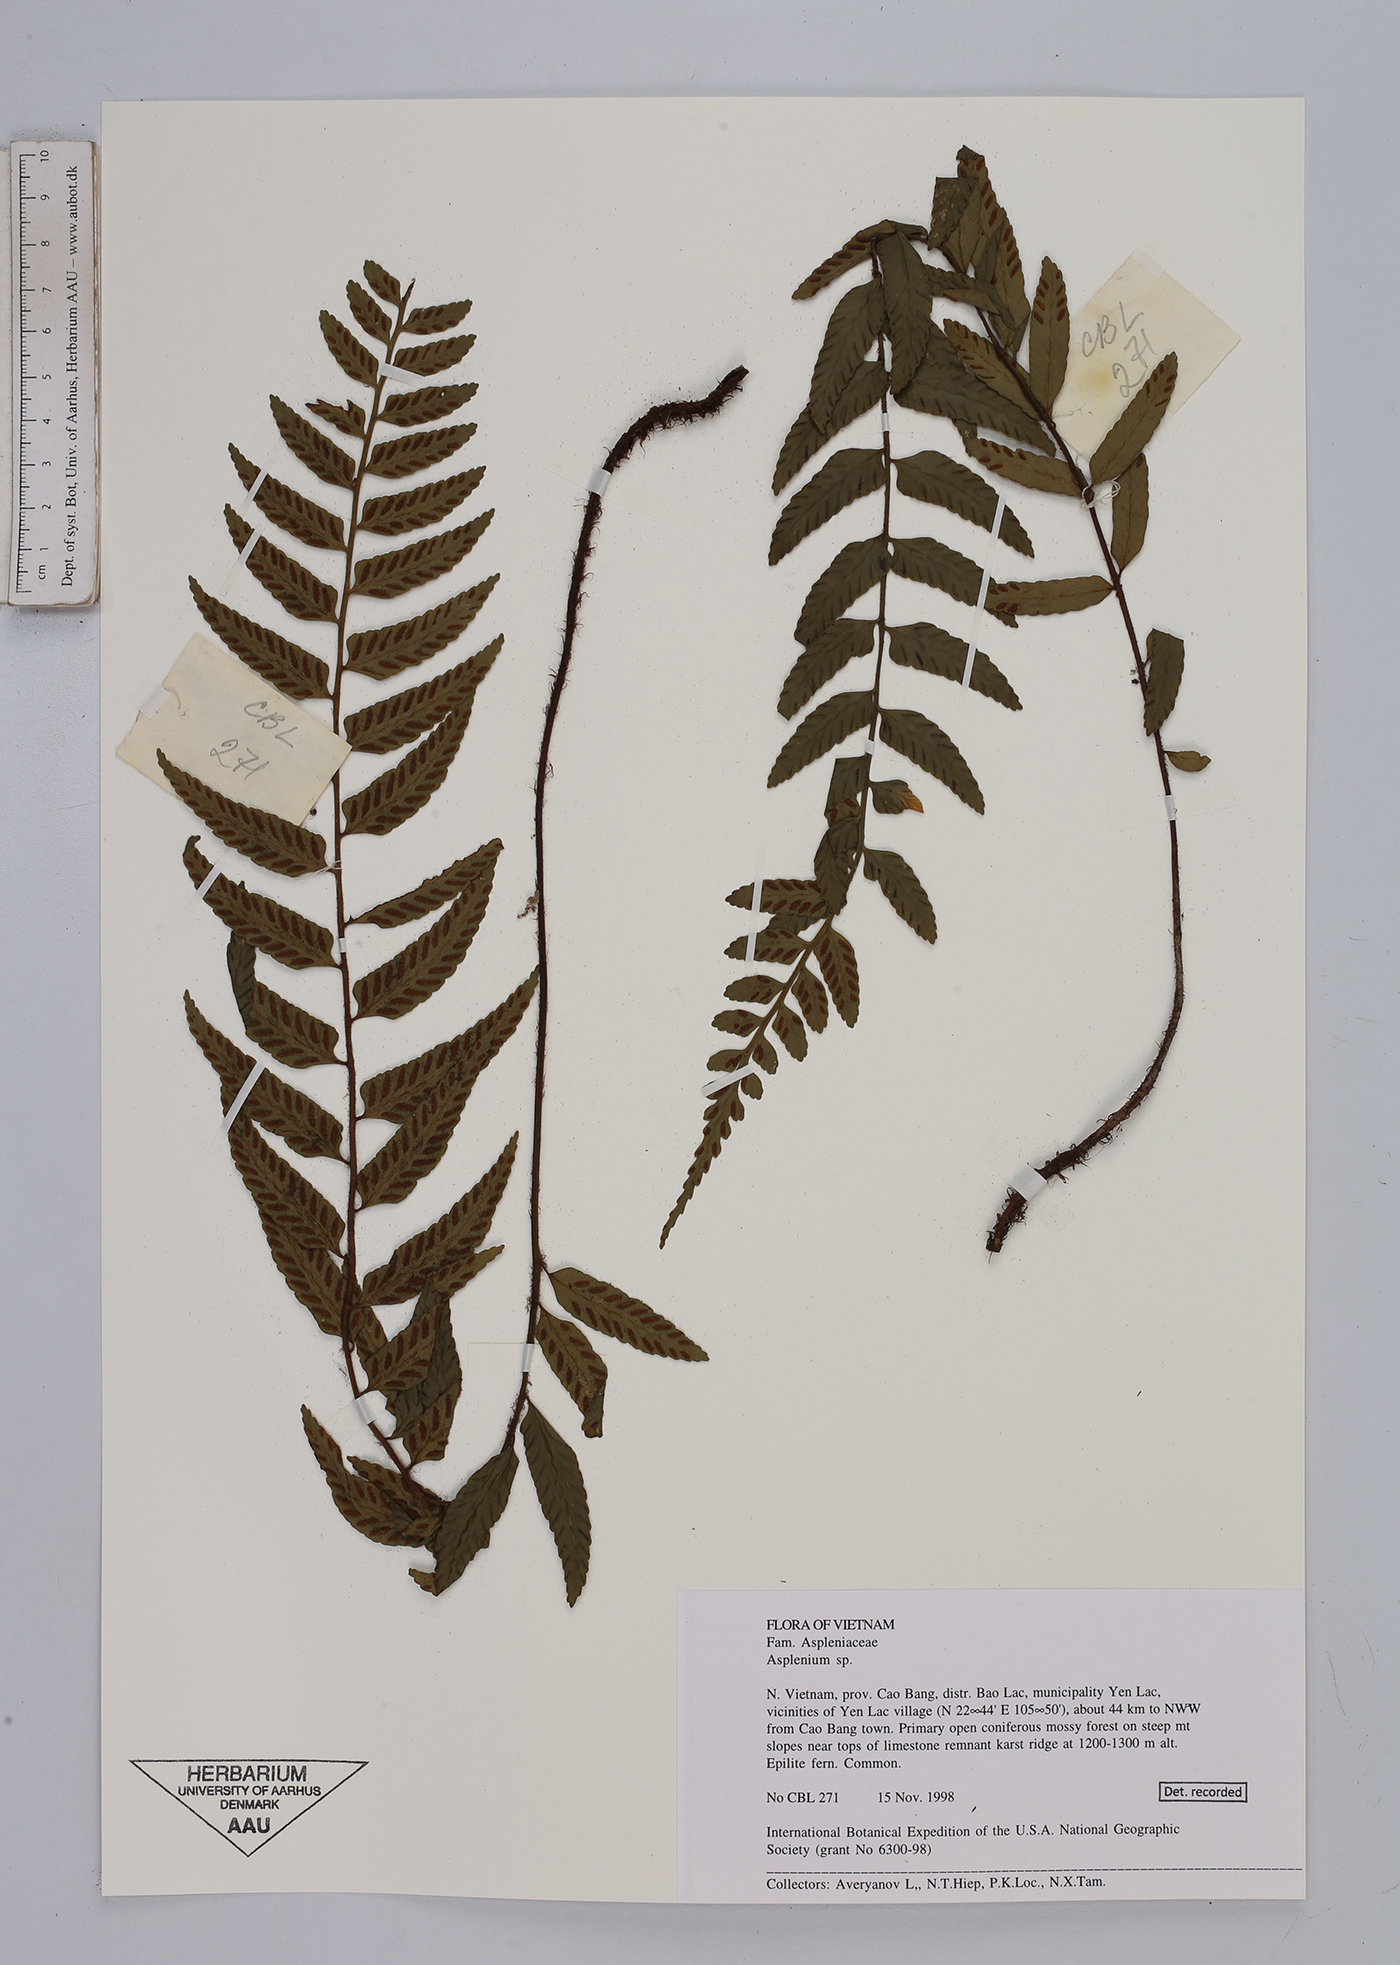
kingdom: Plantae
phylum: Tracheophyta
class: Polypodiopsida
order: Polypodiales
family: Aspleniaceae
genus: Asplenium
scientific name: Asplenium
